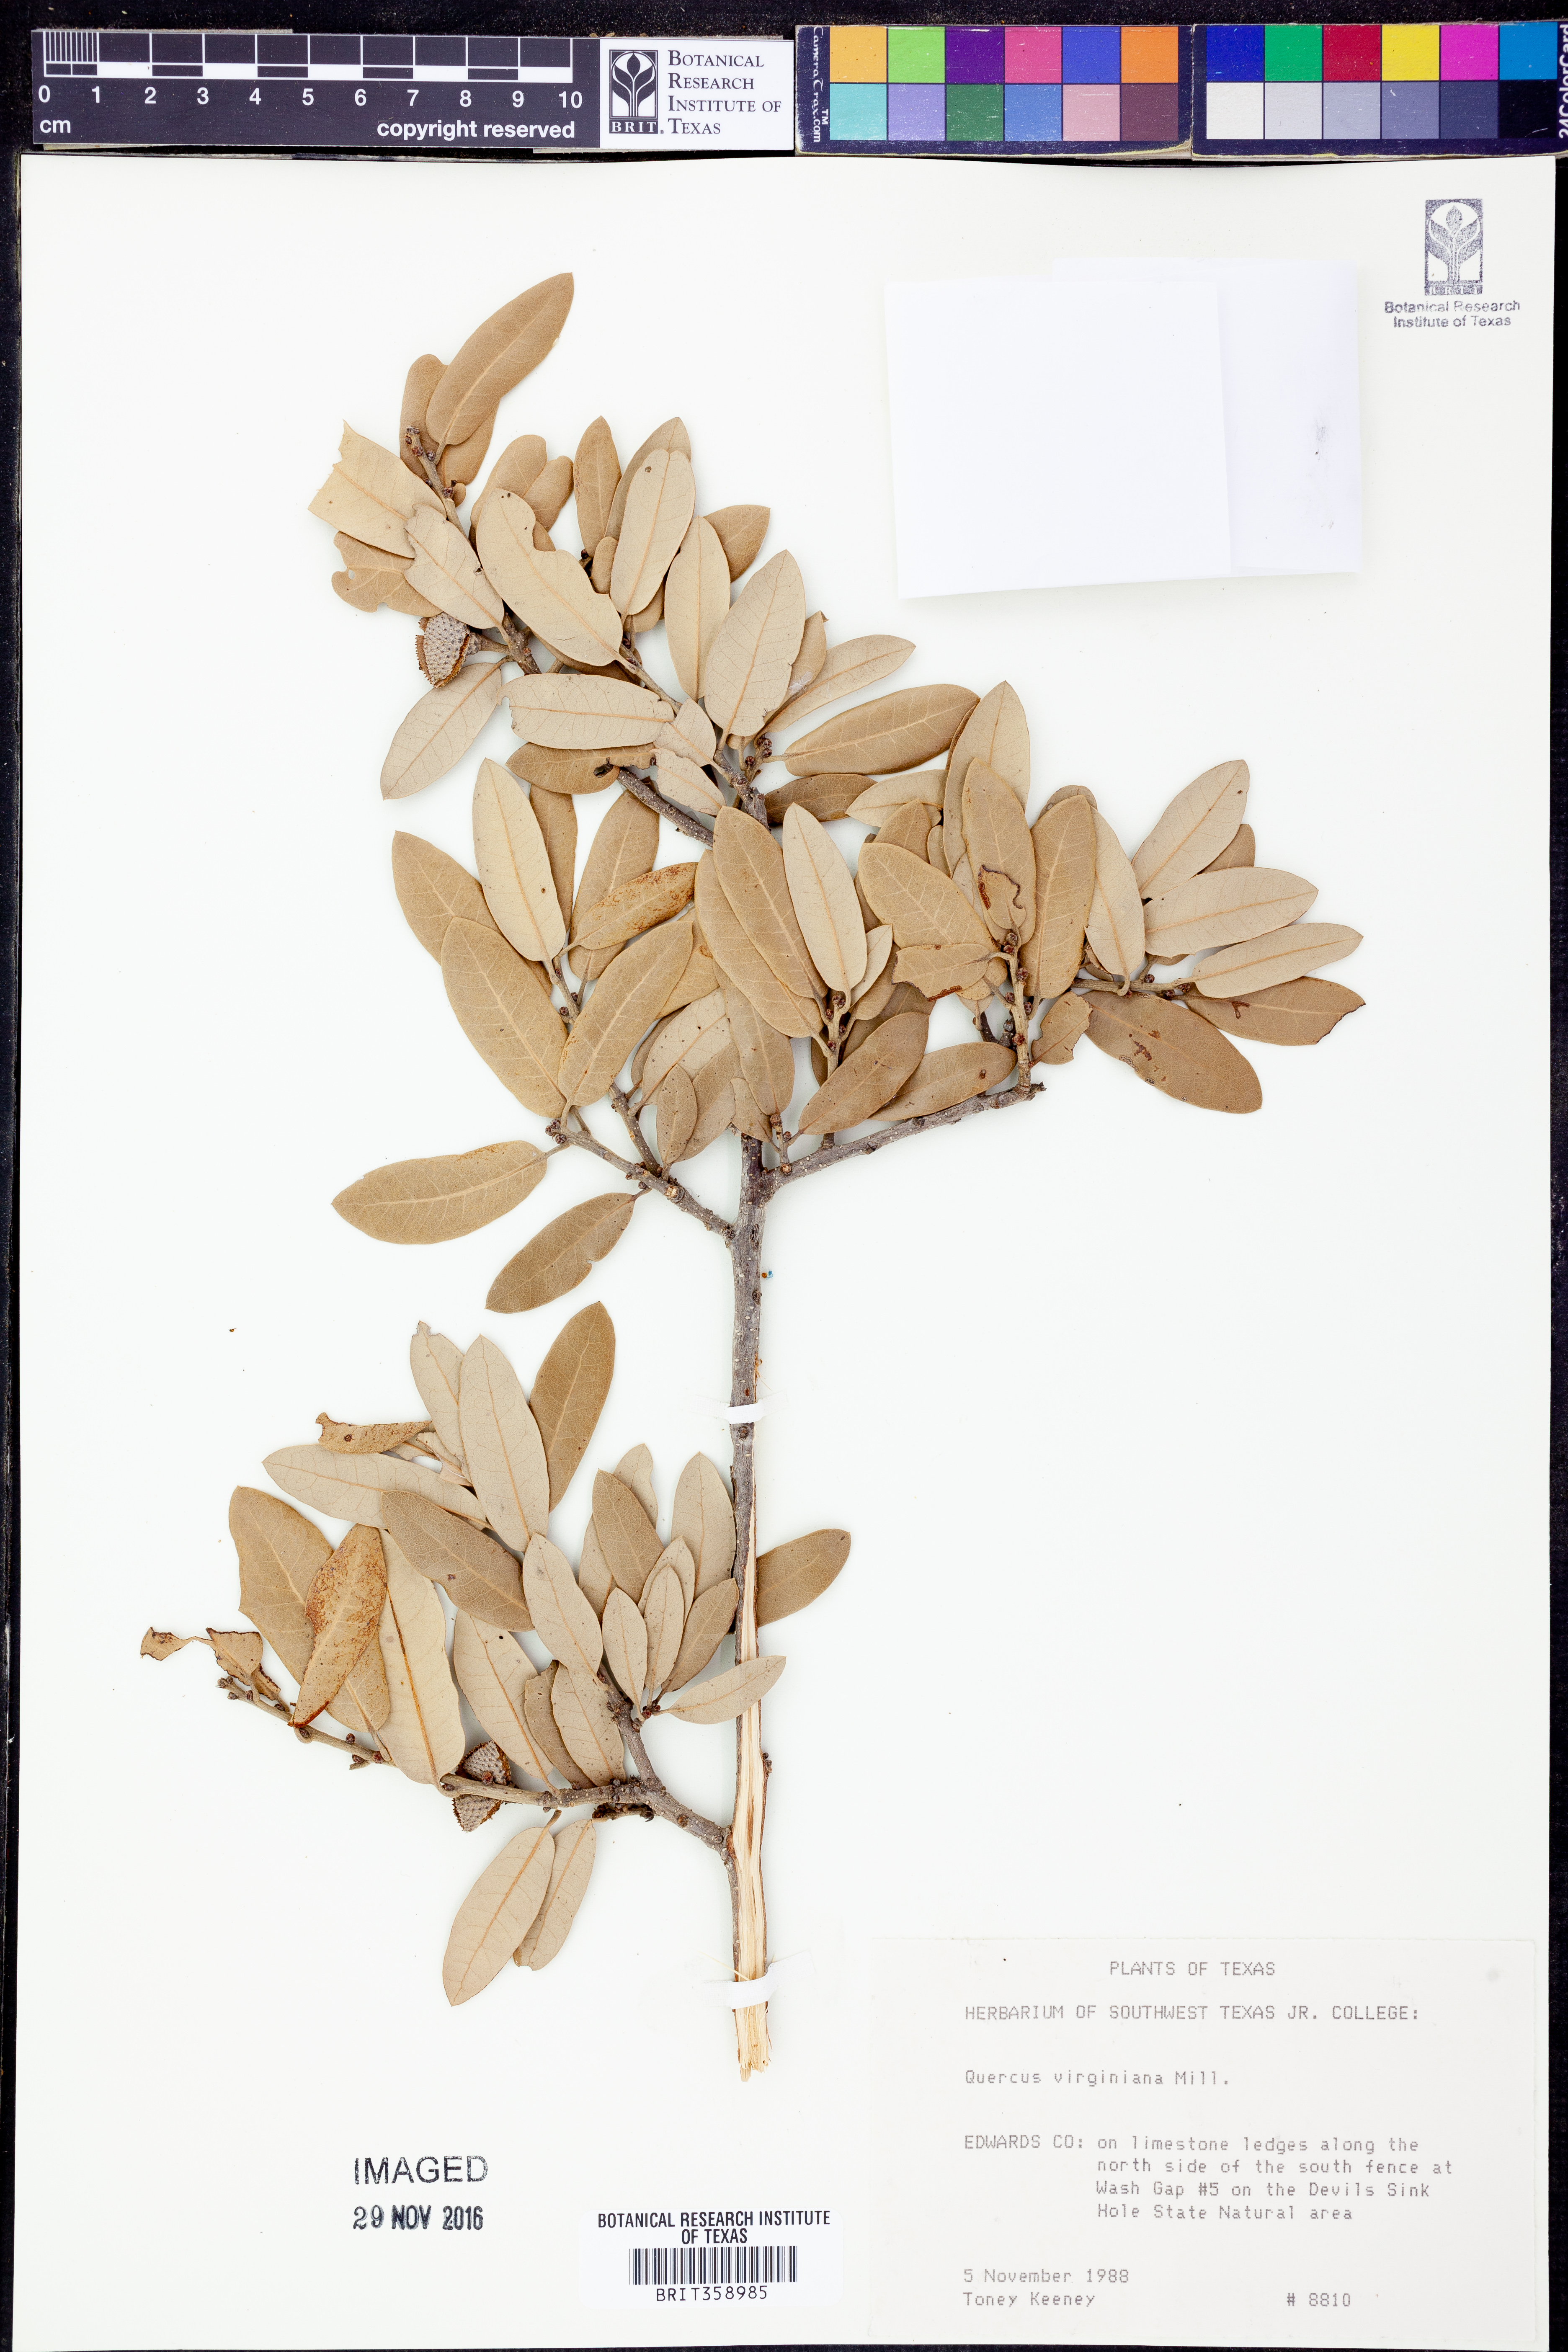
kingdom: Plantae
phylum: Tracheophyta
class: Magnoliopsida
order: Fagales
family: Fagaceae
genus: Quercus
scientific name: Quercus virginiana
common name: Southern live oak
